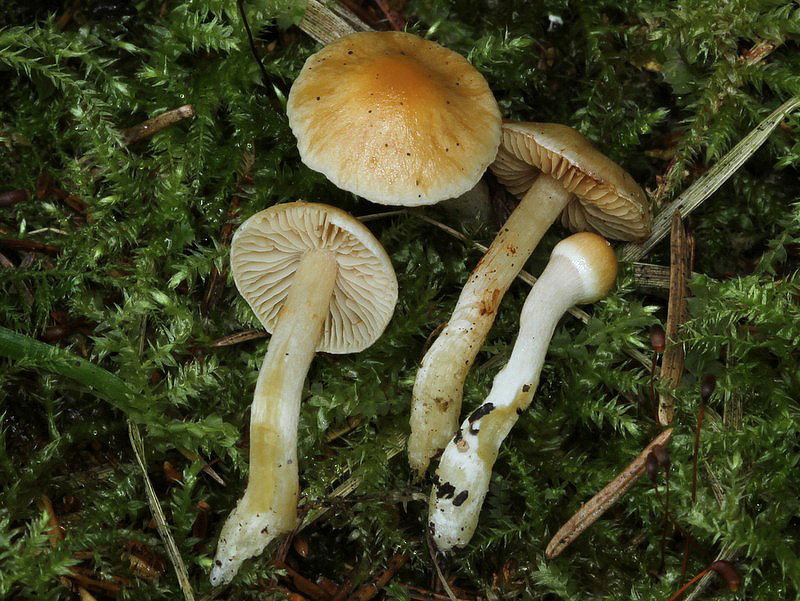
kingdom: Fungi
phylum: Basidiomycota
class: Agaricomycetes
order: Agaricales
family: Cortinariaceae
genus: Thaxterogaster
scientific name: Thaxterogaster pluvius
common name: hvidgul slørhat
